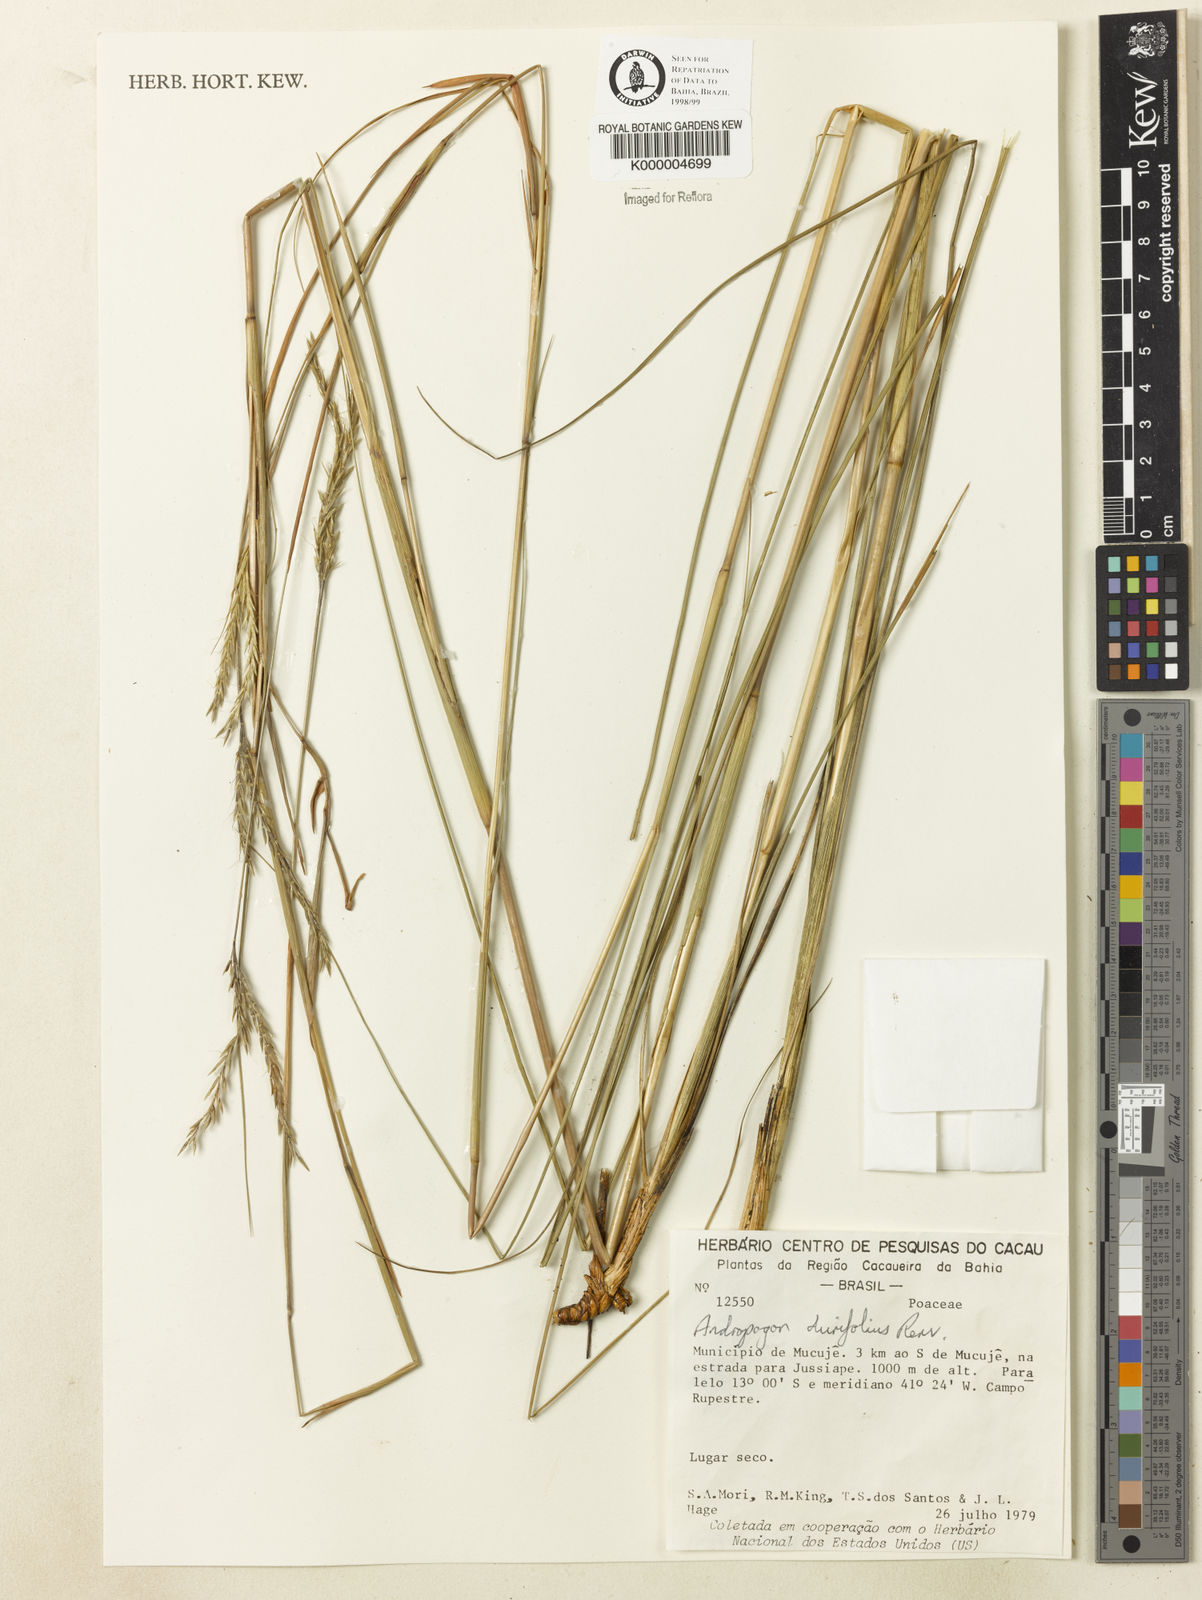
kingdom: Plantae
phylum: Tracheophyta
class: Liliopsida
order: Poales
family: Poaceae
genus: Andropogon
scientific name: Andropogon durifolius
